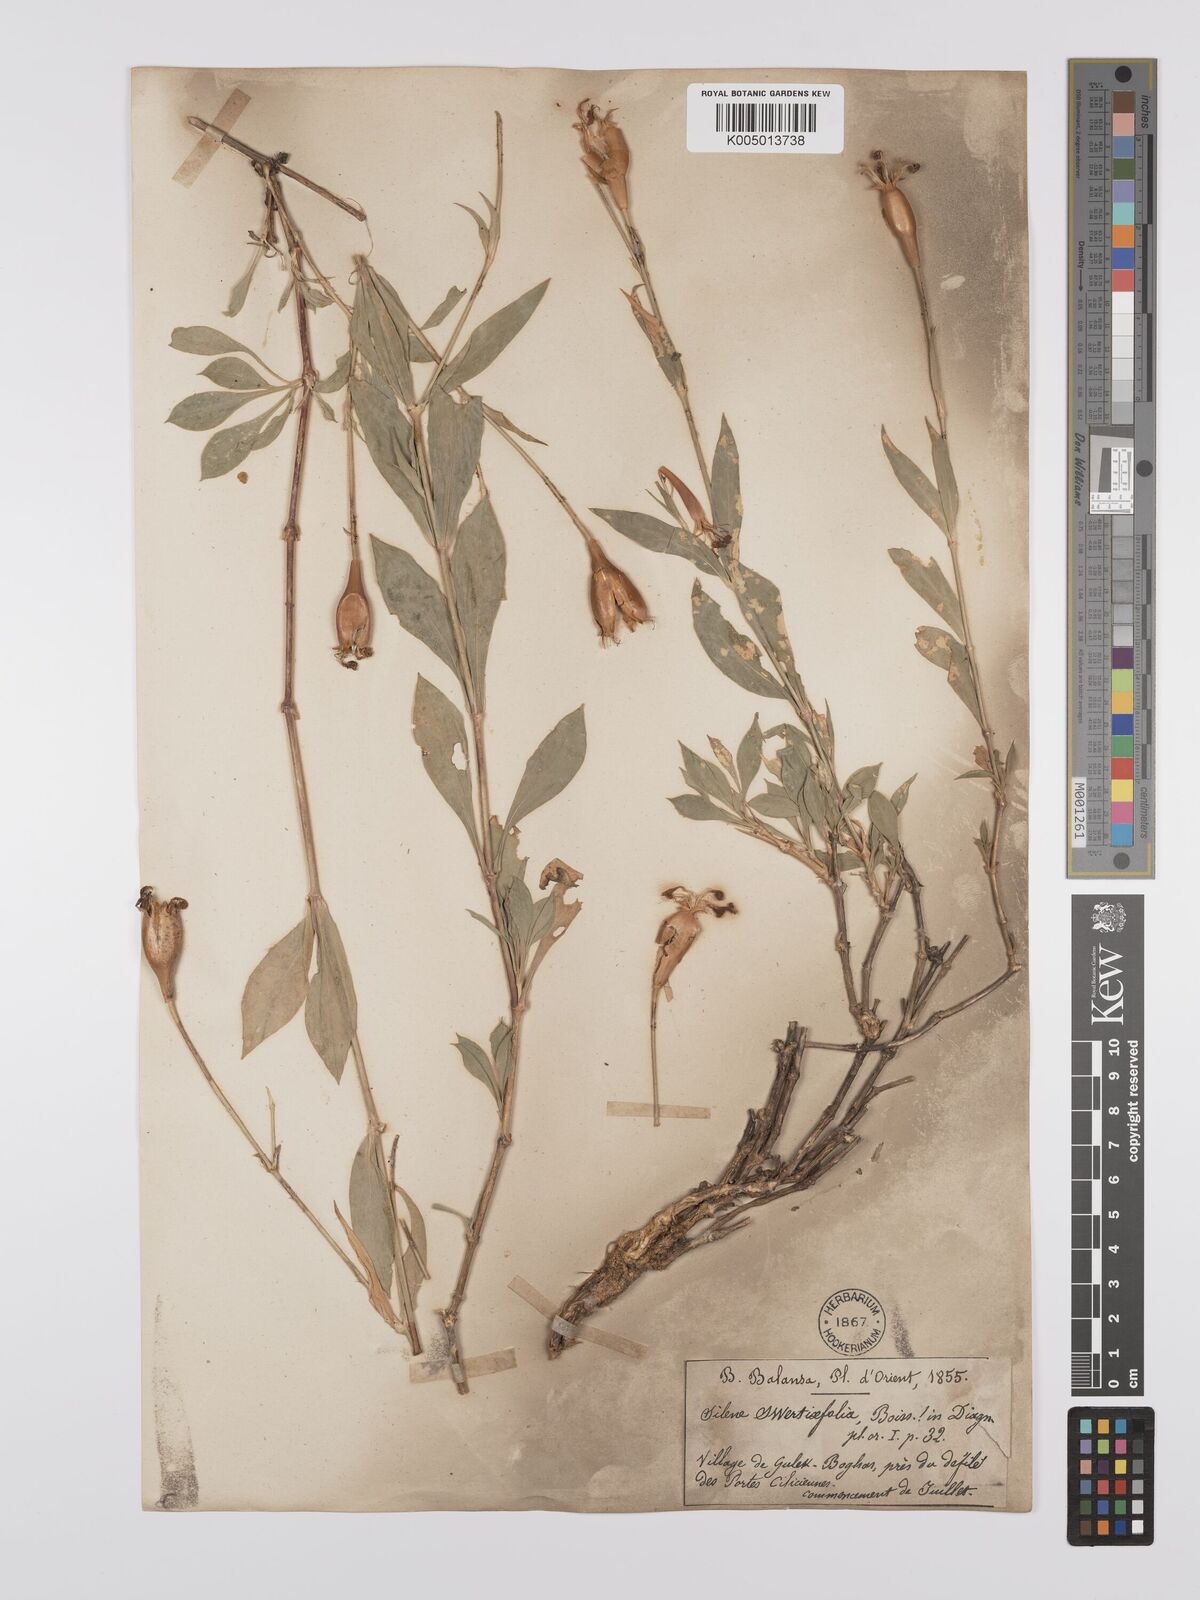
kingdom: Plantae
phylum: Tracheophyta
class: Magnoliopsida
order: Caryophyllales
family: Caryophyllaceae
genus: Silene
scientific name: Silene swertiifolia
